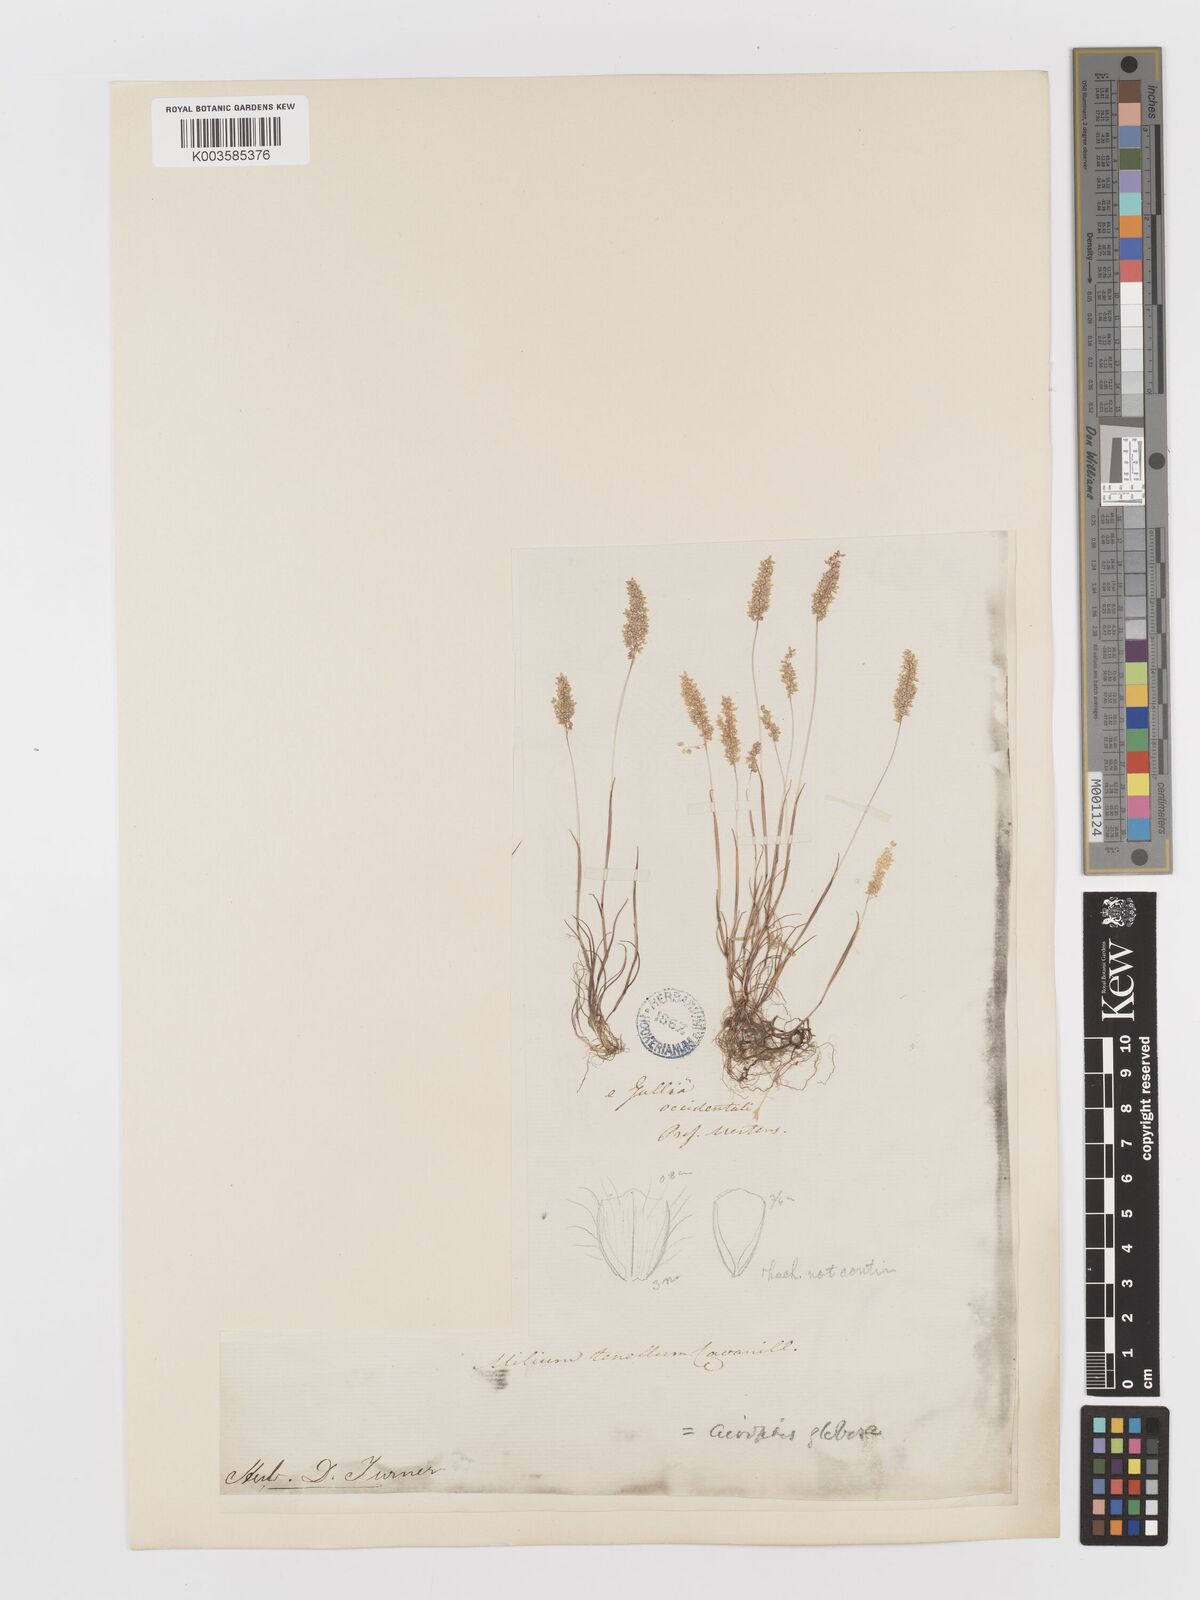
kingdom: Plantae
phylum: Tracheophyta
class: Liliopsida
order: Poales
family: Poaceae
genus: Airopsis
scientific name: Airopsis tenella
